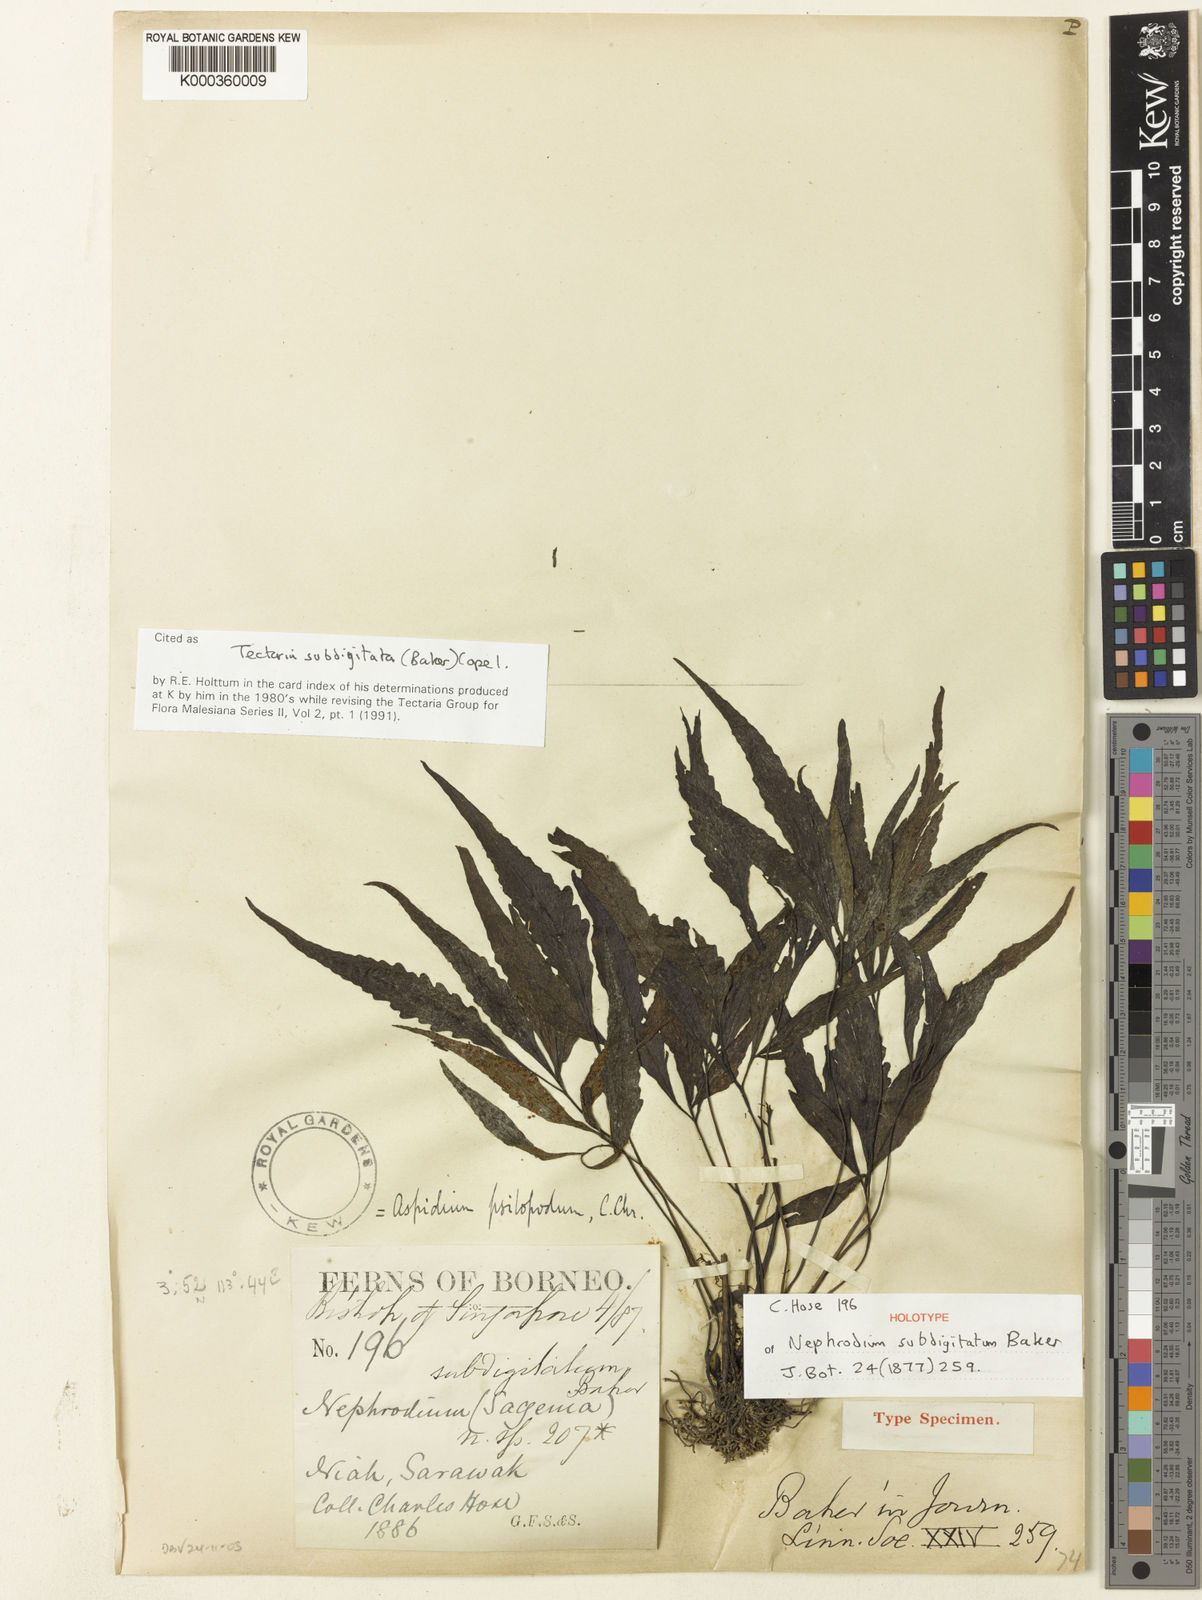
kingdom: Plantae
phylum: Tracheophyta
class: Polypodiopsida
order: Polypodiales
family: Tectariaceae
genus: Tectaria
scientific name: Tectaria subdigitata
